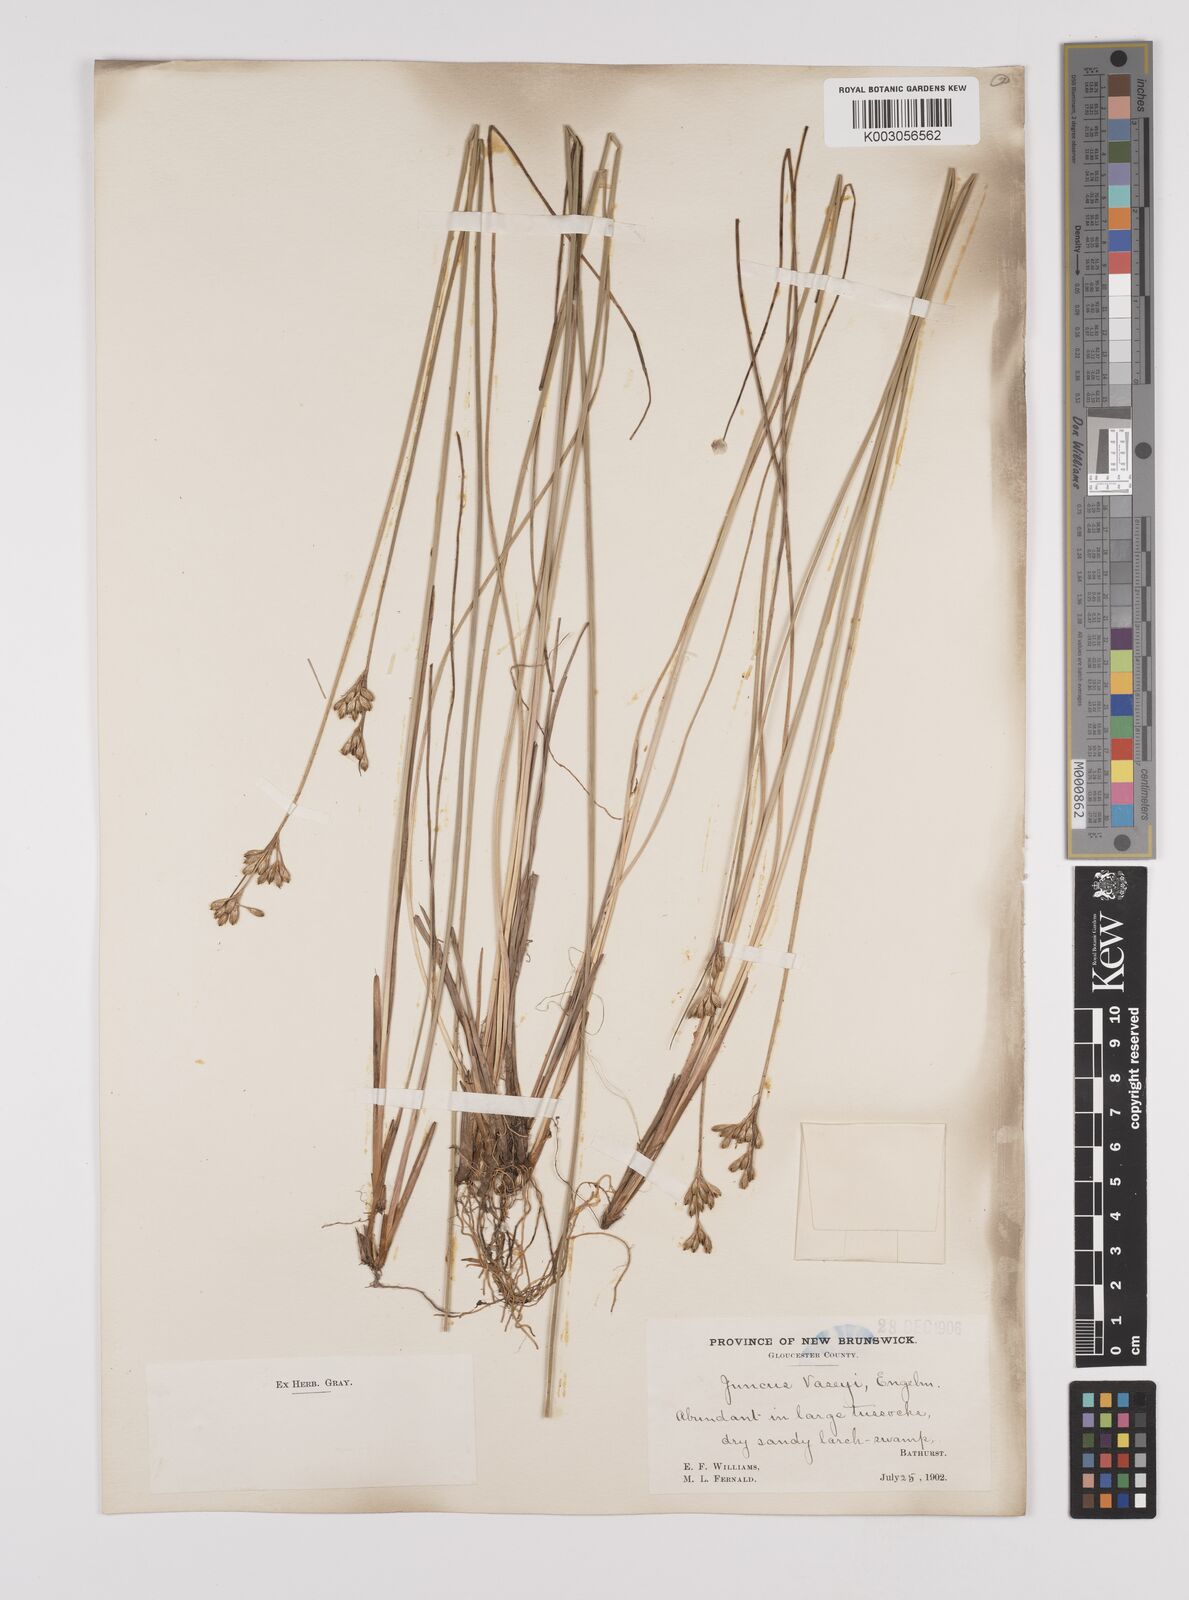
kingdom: Plantae
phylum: Tracheophyta
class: Liliopsida
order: Poales
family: Juncaceae
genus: Juncus
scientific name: Juncus vaseyi
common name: Big-headed rush
